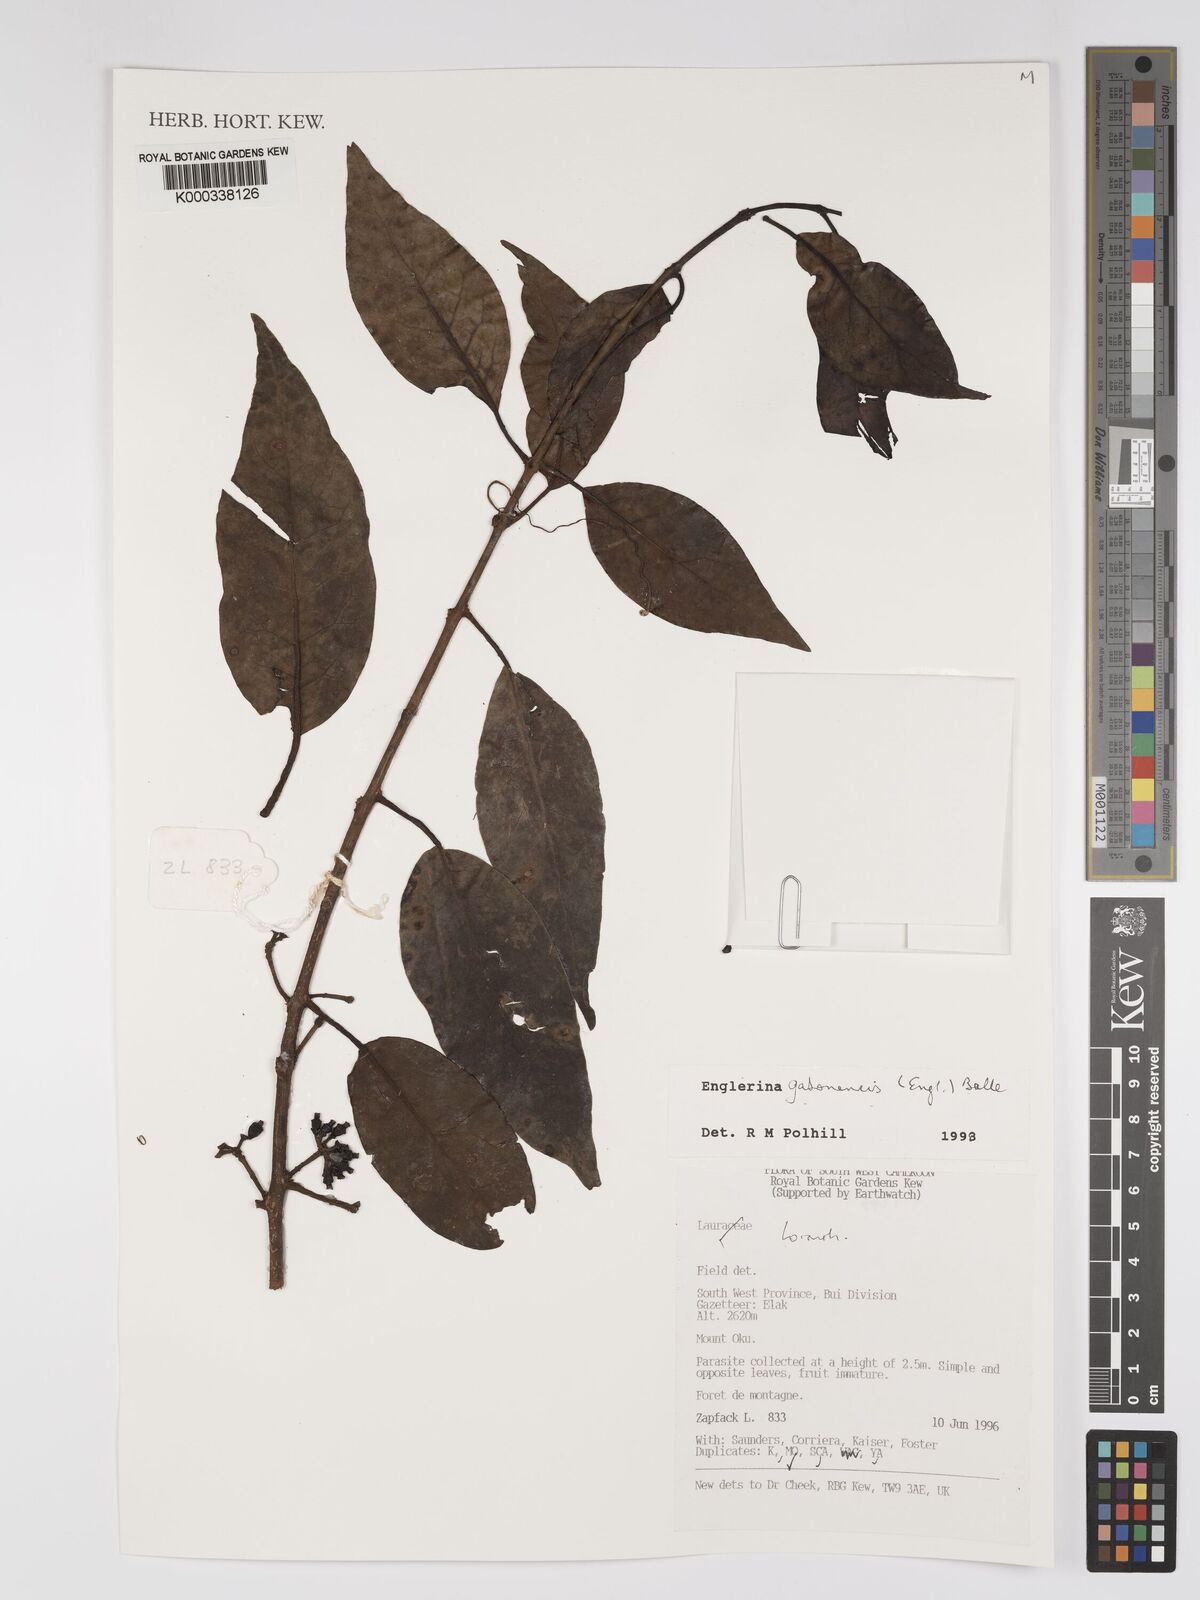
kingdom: Plantae
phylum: Tracheophyta
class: Magnoliopsida
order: Santalales
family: Loranthaceae
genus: Englerina
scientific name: Englerina gabonensis
